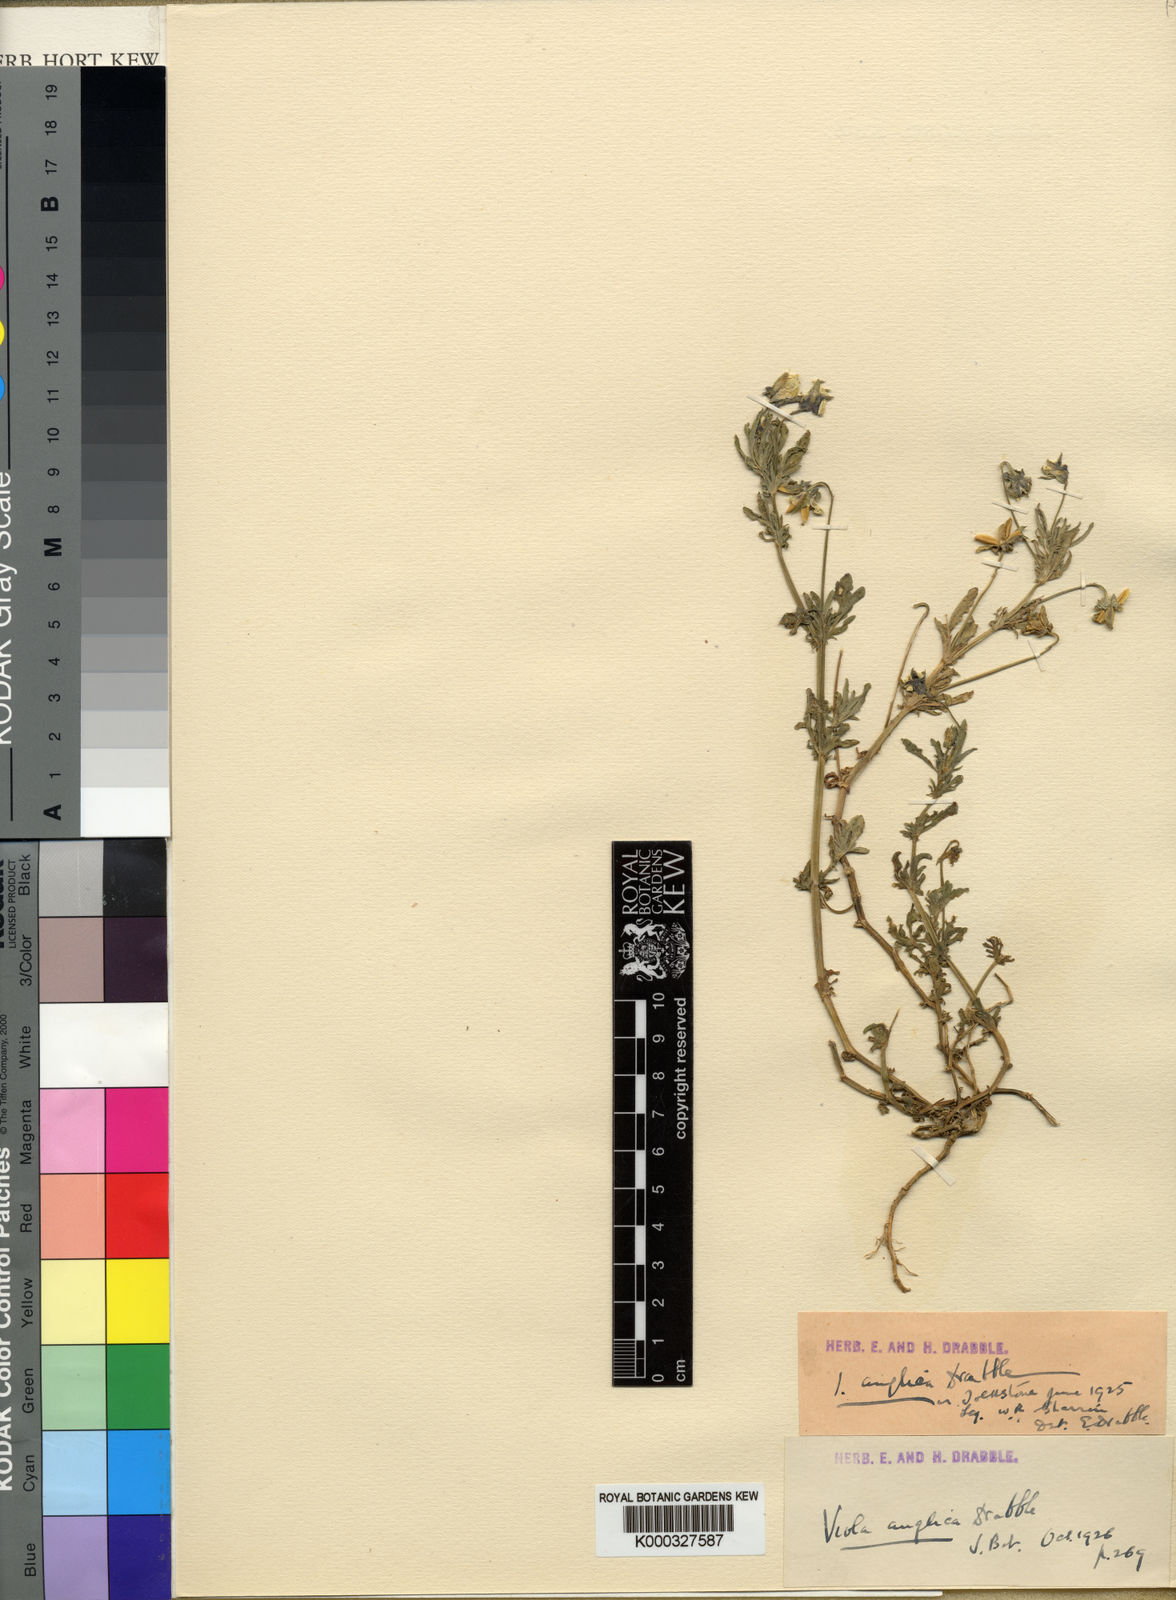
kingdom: Plantae
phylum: Tracheophyta
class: Magnoliopsida
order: Malpighiales
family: Violaceae
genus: Viola
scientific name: Viola arvensis
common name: Field pansy
